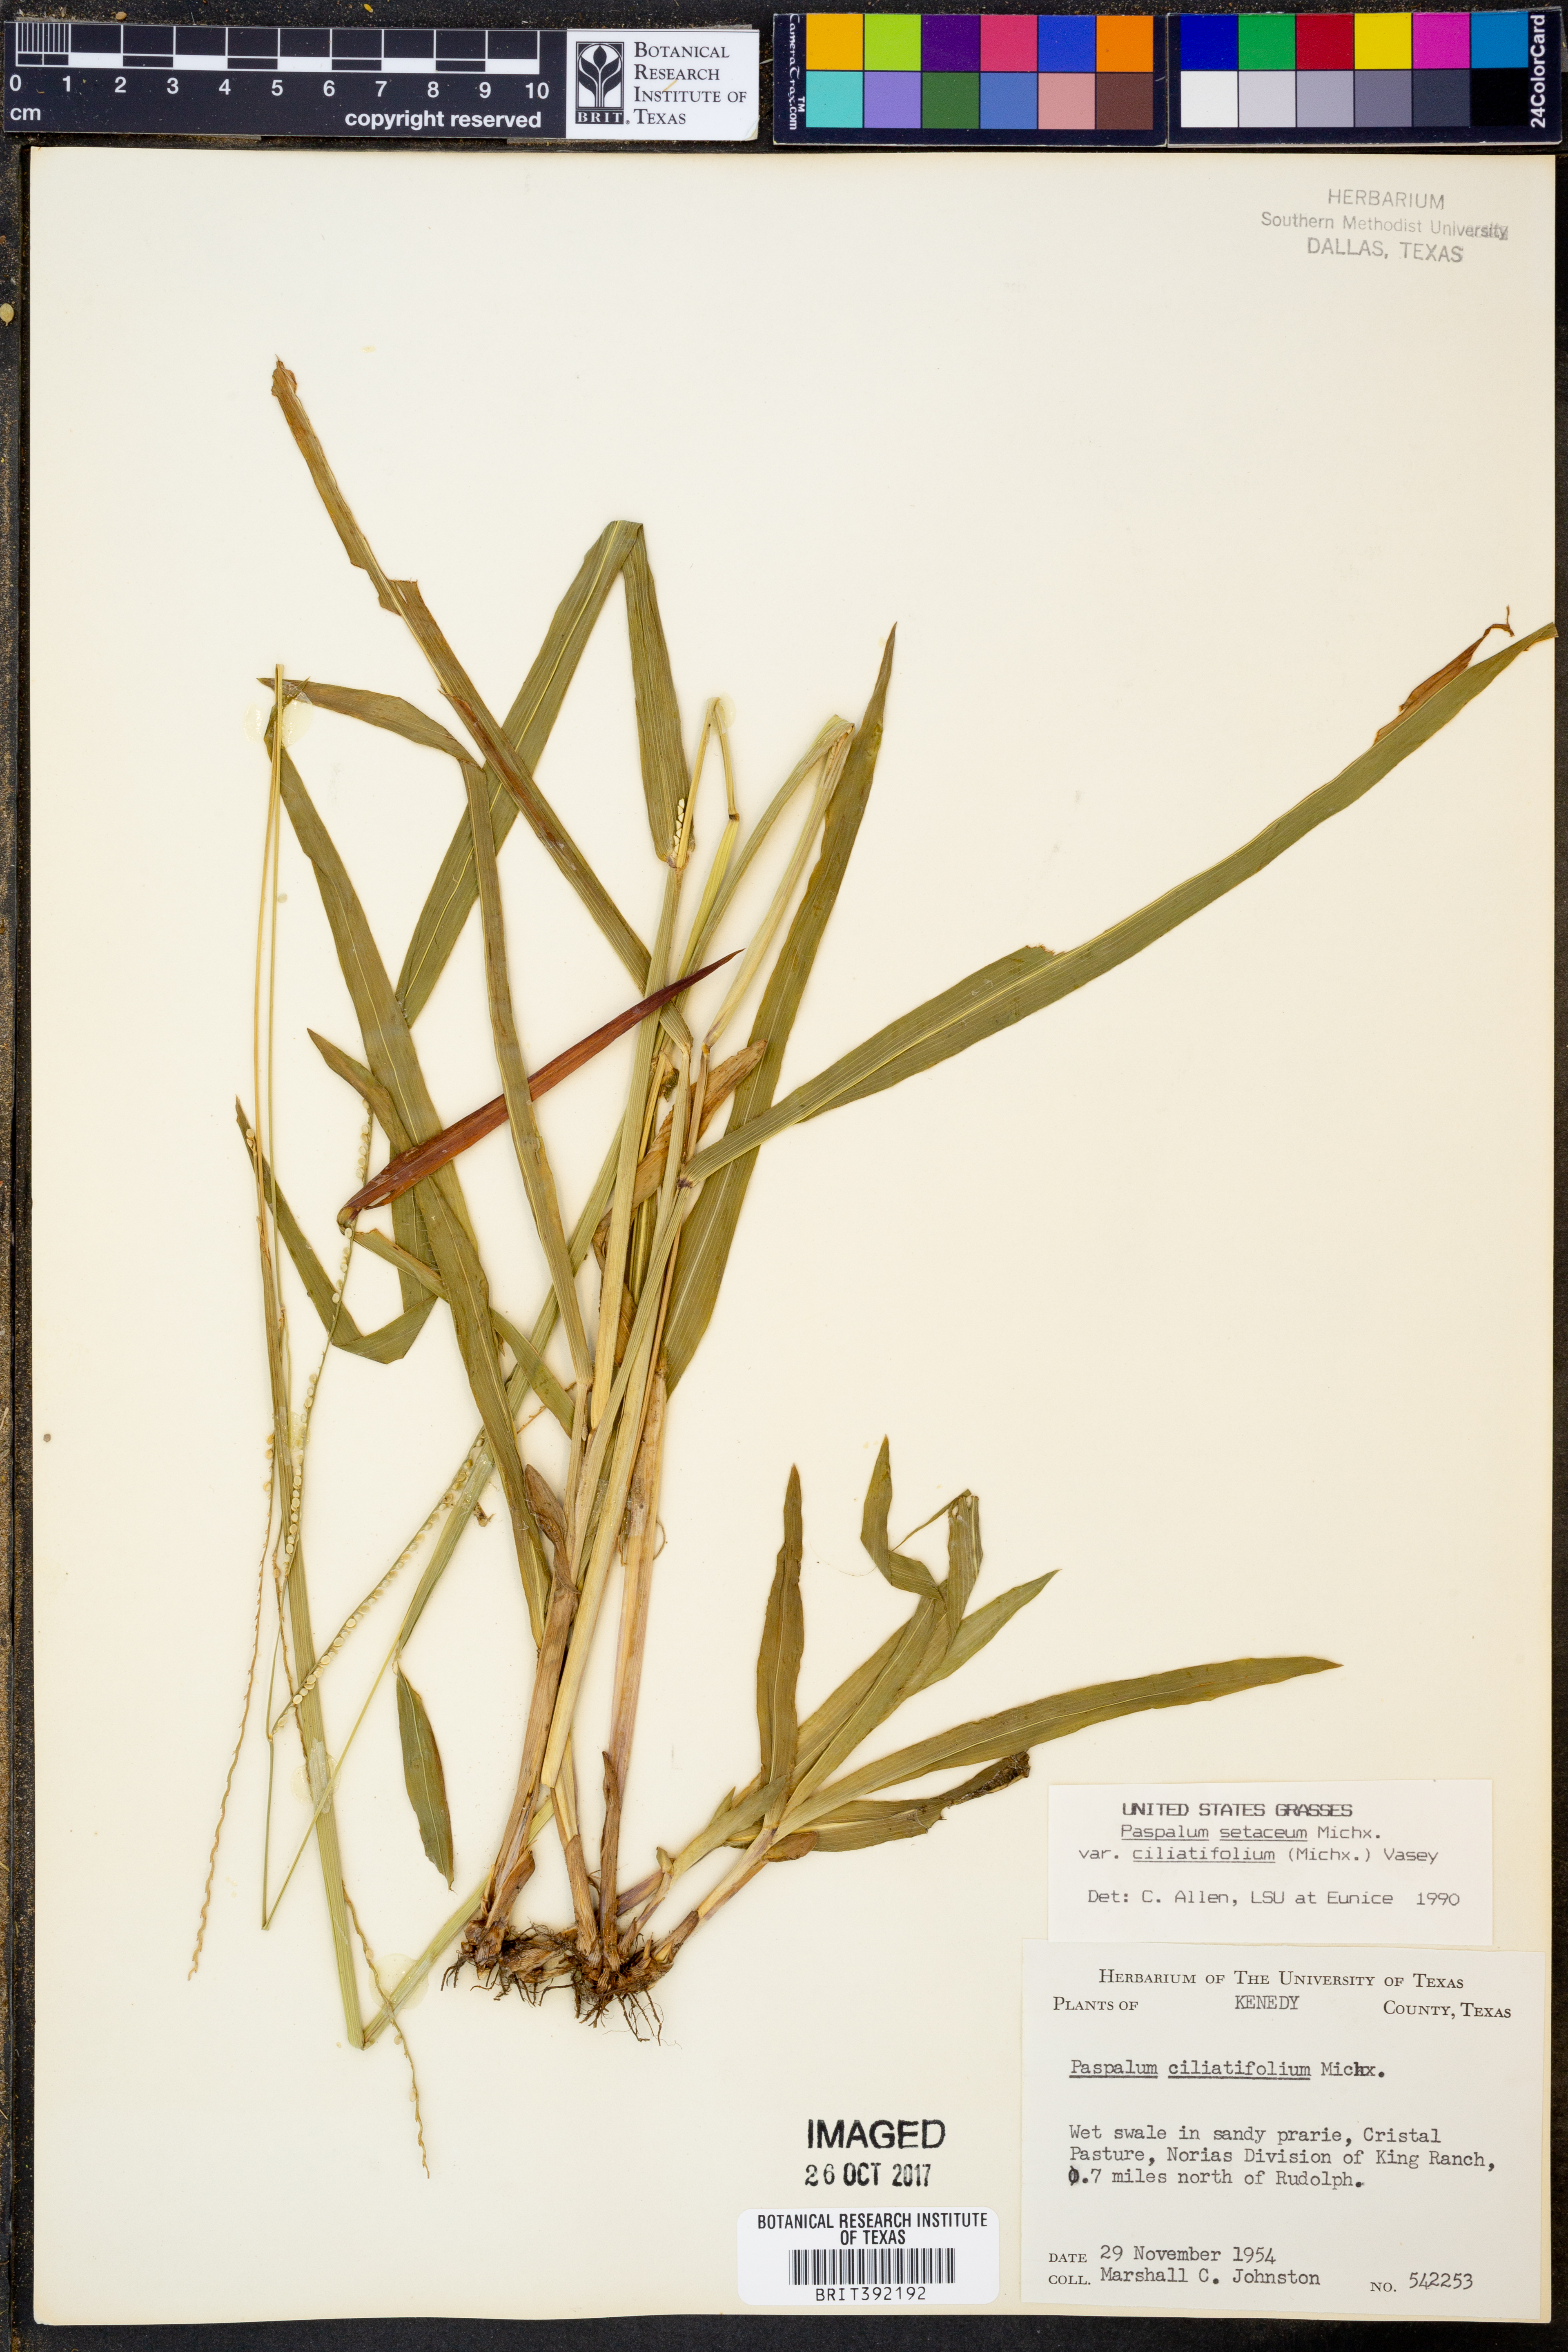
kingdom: Plantae
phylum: Tracheophyta
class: Liliopsida
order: Poales
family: Poaceae
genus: Paspalum
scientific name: Paspalum setaceum
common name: Slender paspalum
